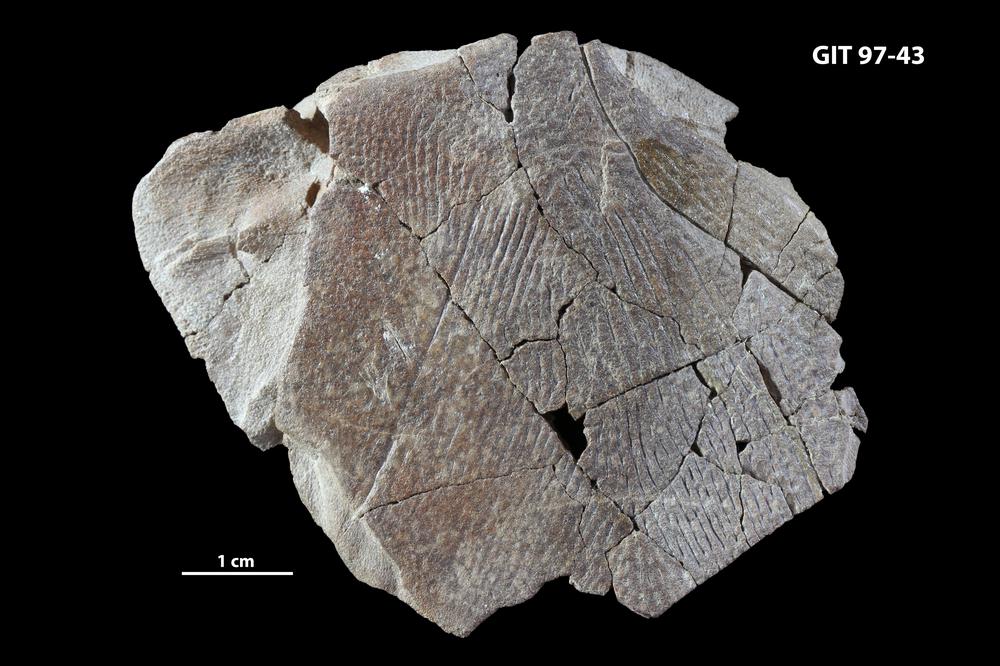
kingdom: Animalia
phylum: Chordata
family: Holonematidae
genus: Holonema
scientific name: Holonema
